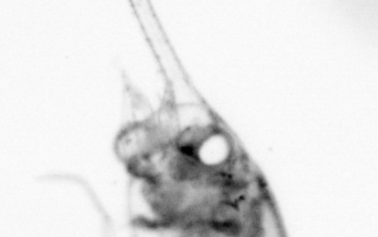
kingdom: Animalia
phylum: Arthropoda
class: Copepoda
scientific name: Copepoda
